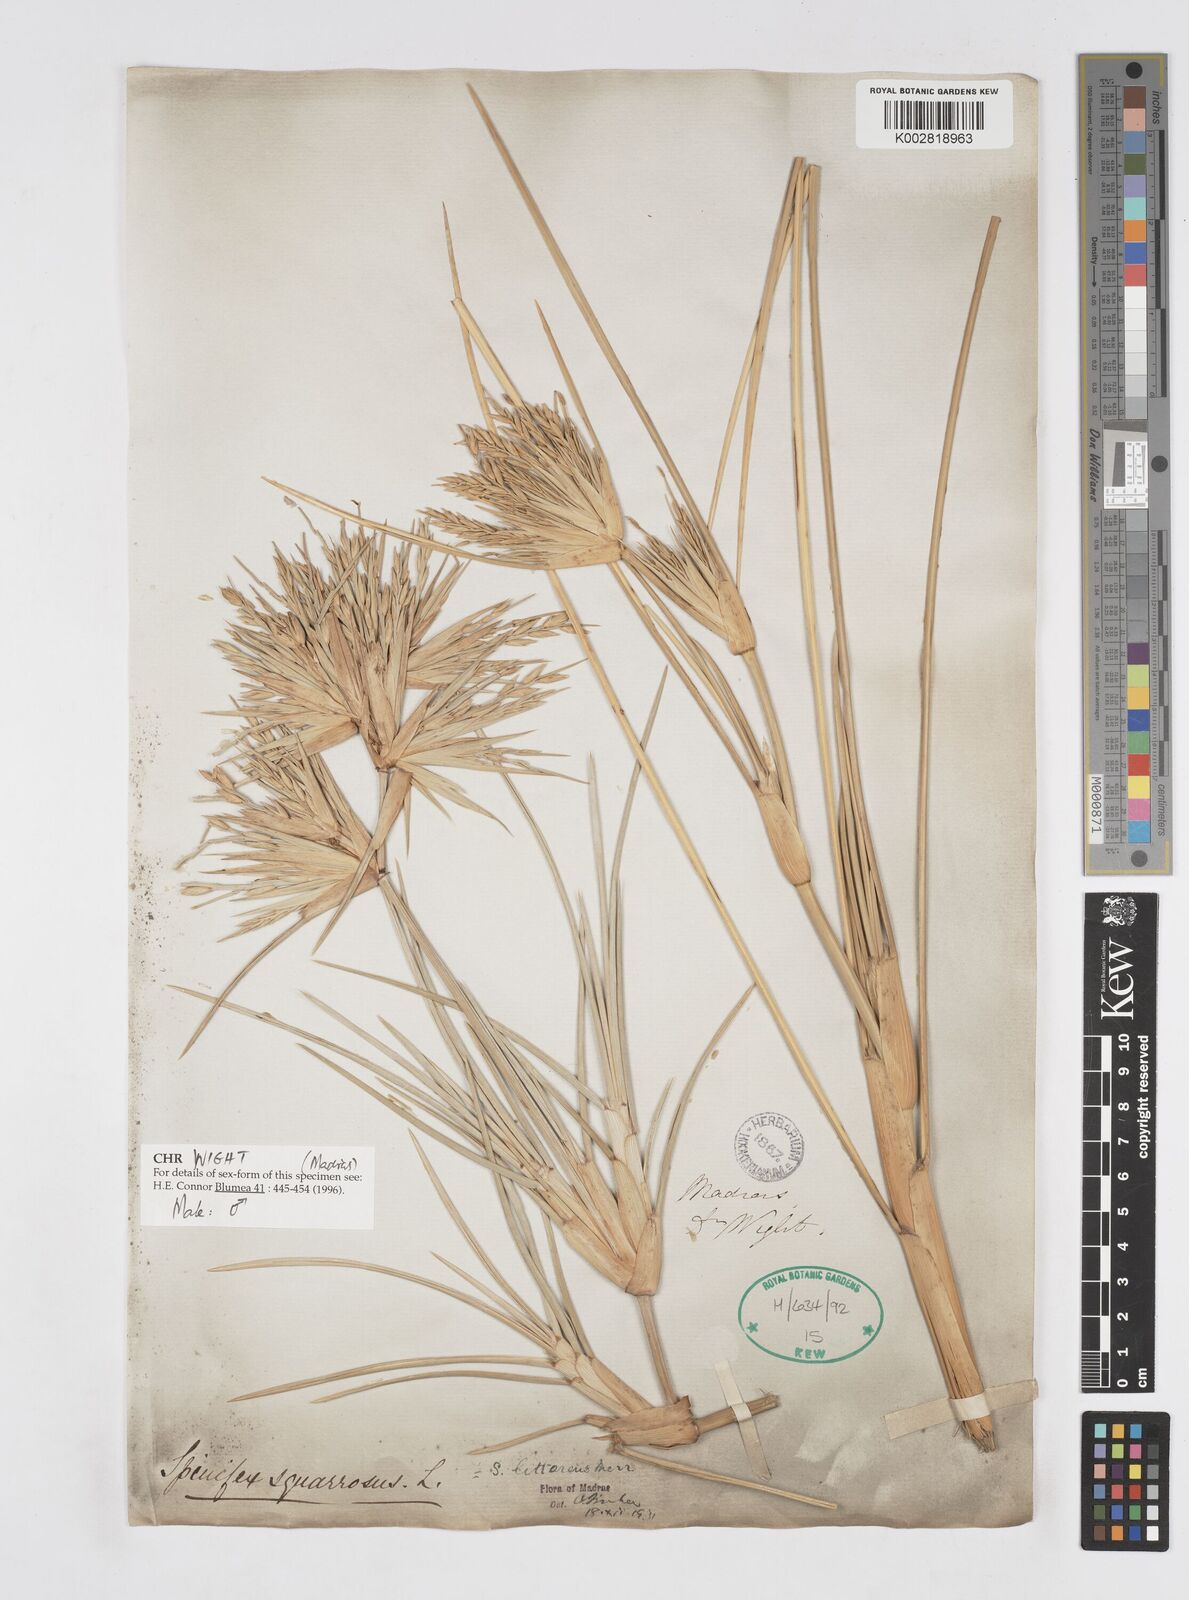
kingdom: Plantae
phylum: Tracheophyta
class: Liliopsida
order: Poales
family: Poaceae
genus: Spinifex
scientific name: Spinifex littoreus
